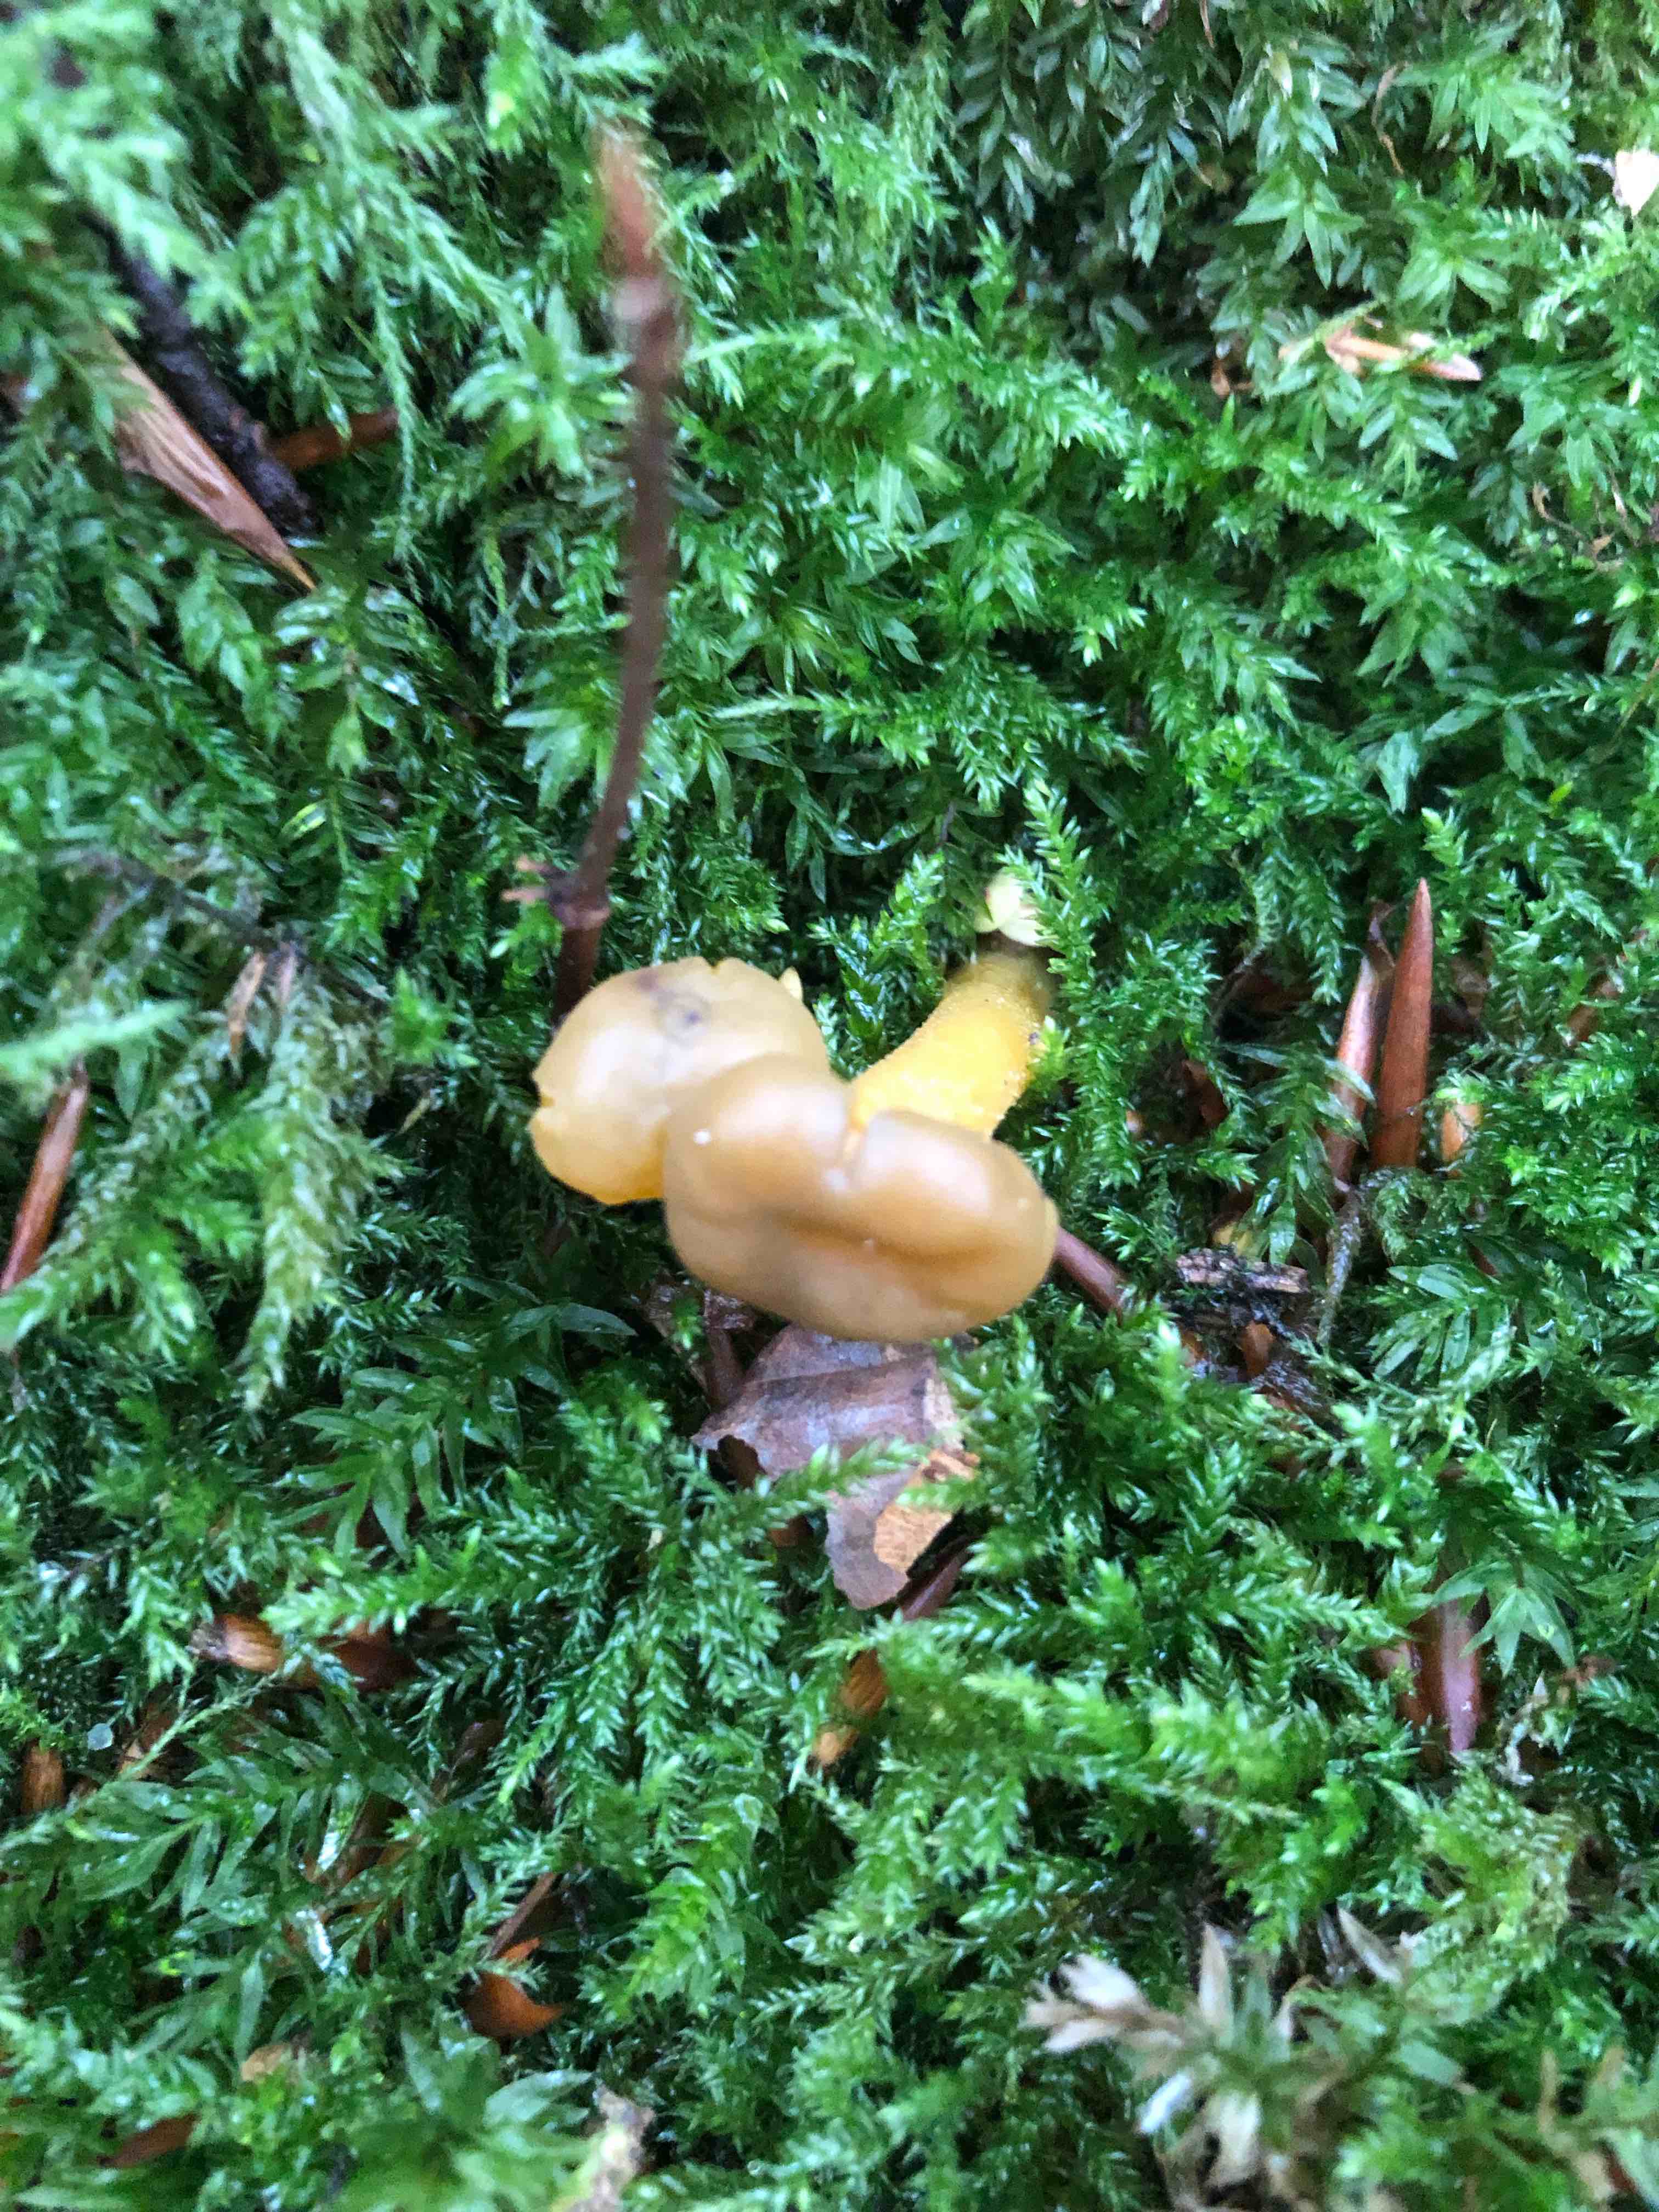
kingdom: Fungi
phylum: Ascomycota
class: Leotiomycetes
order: Leotiales
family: Leotiaceae
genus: Leotia
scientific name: Leotia lubrica
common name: ravsvamp
